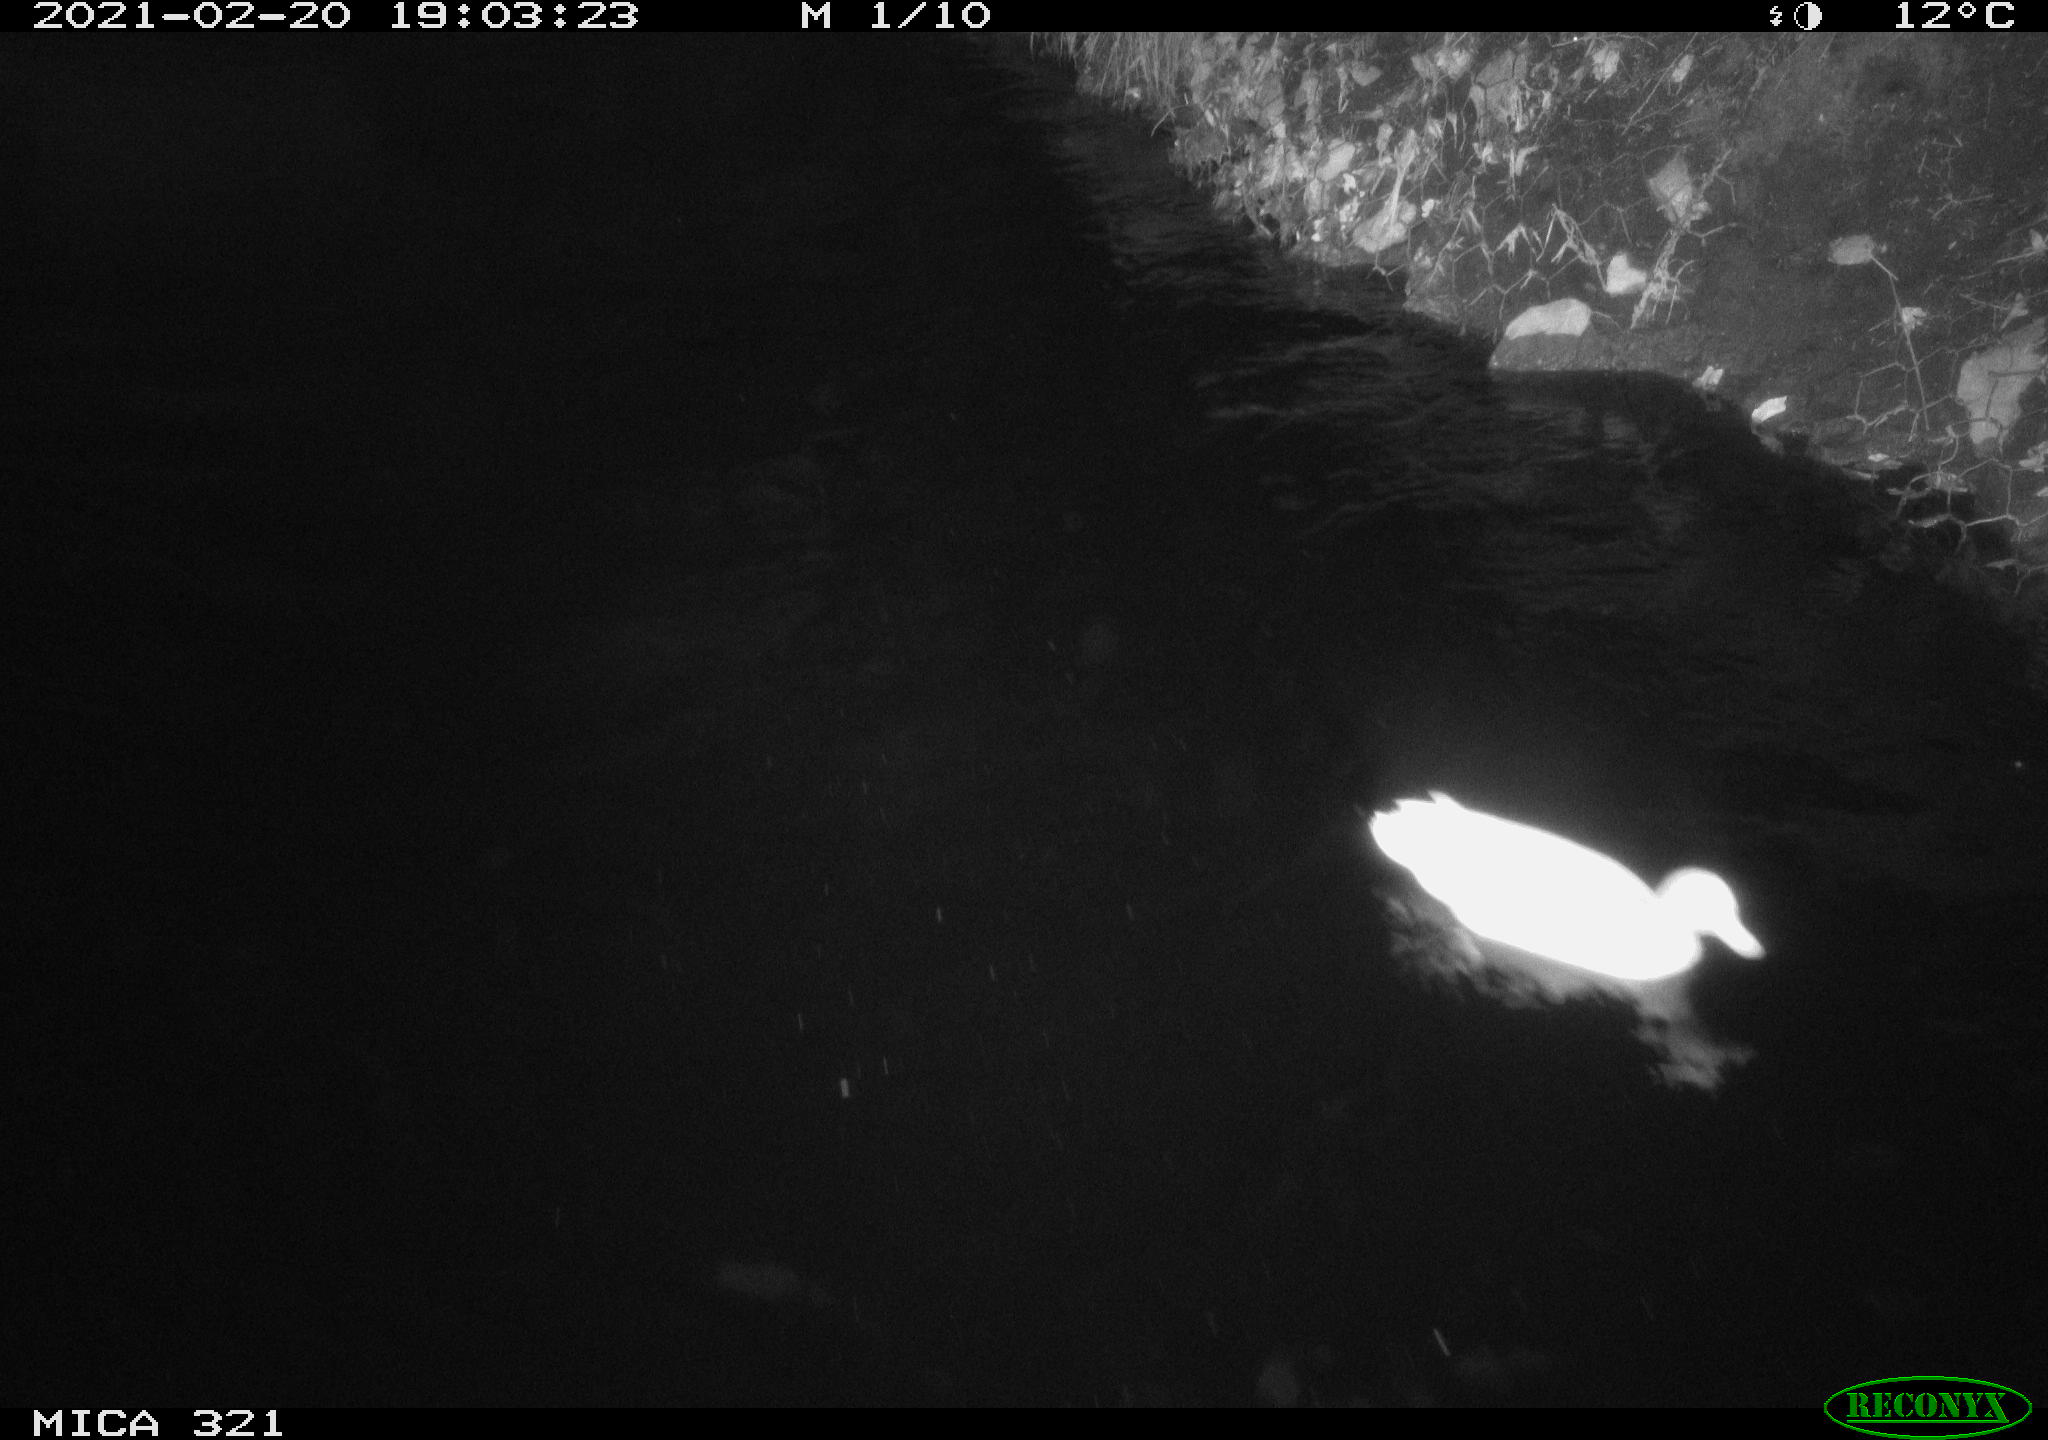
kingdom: Animalia
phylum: Chordata
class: Aves
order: Anseriformes
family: Anatidae
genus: Anas
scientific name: Anas platyrhynchos
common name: Mallard
